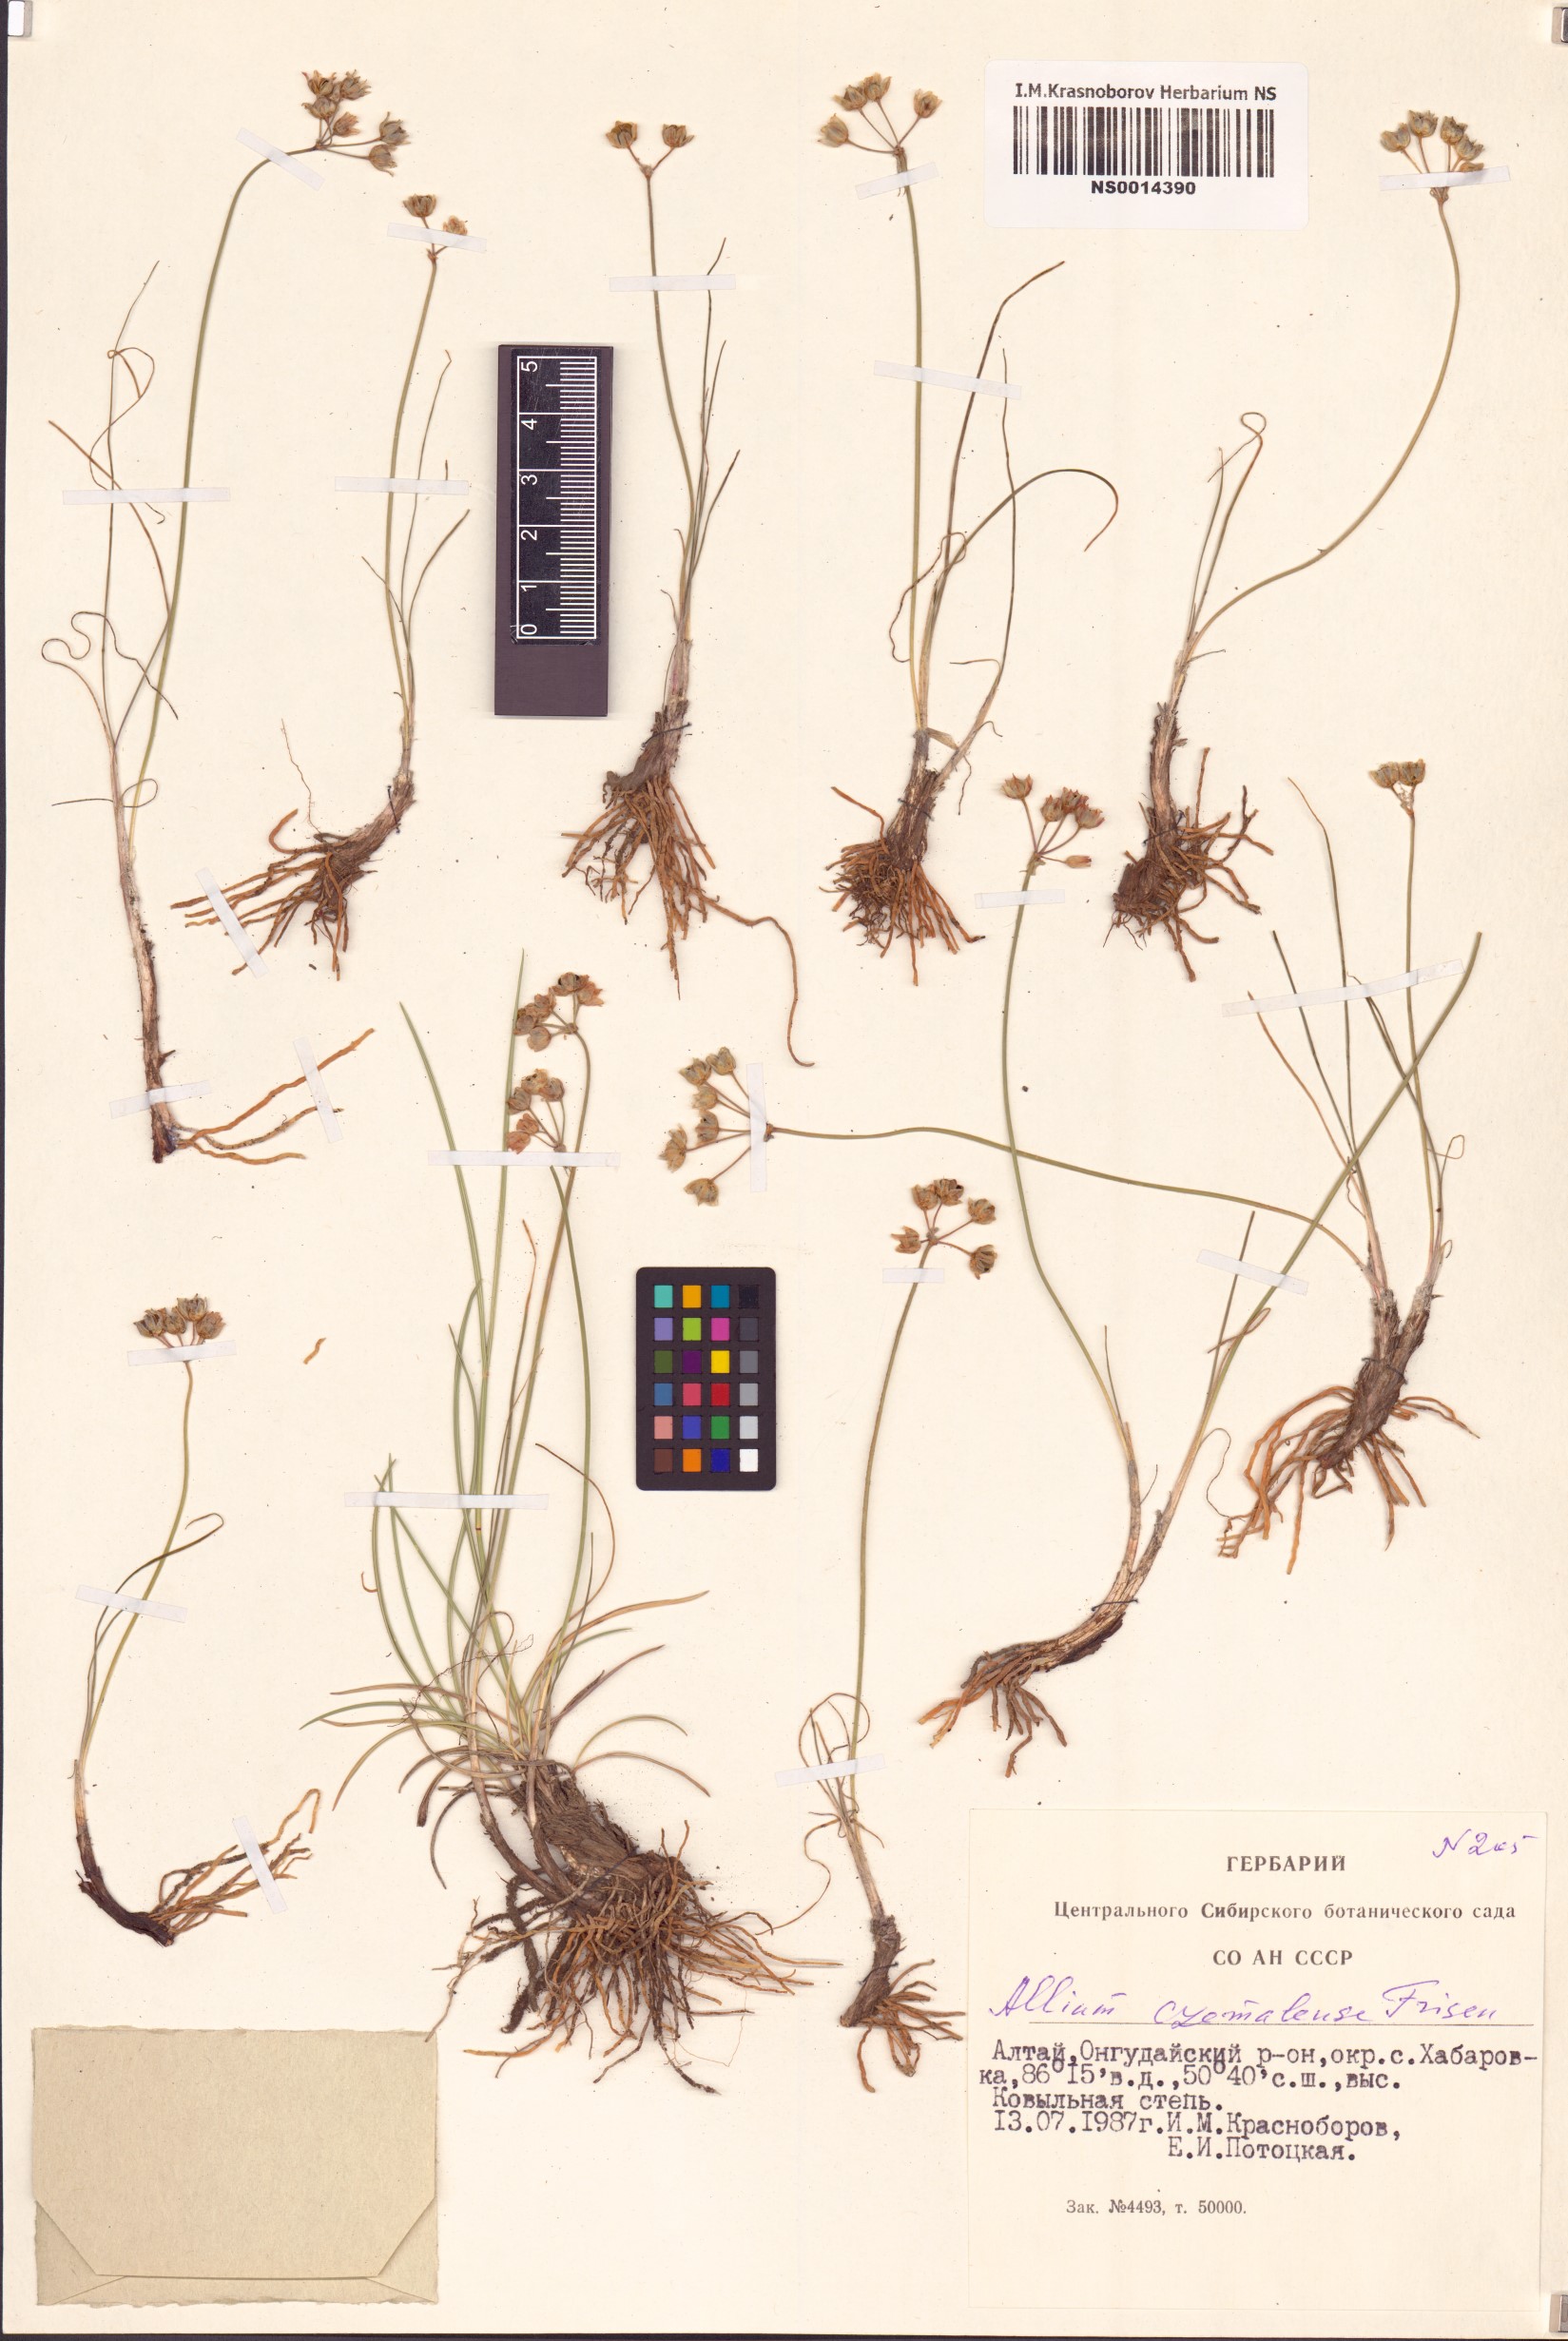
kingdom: Plantae
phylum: Tracheophyta
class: Liliopsida
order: Asparagales
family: Amaryllidaceae
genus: Allium
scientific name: Allium vodopjanovae
